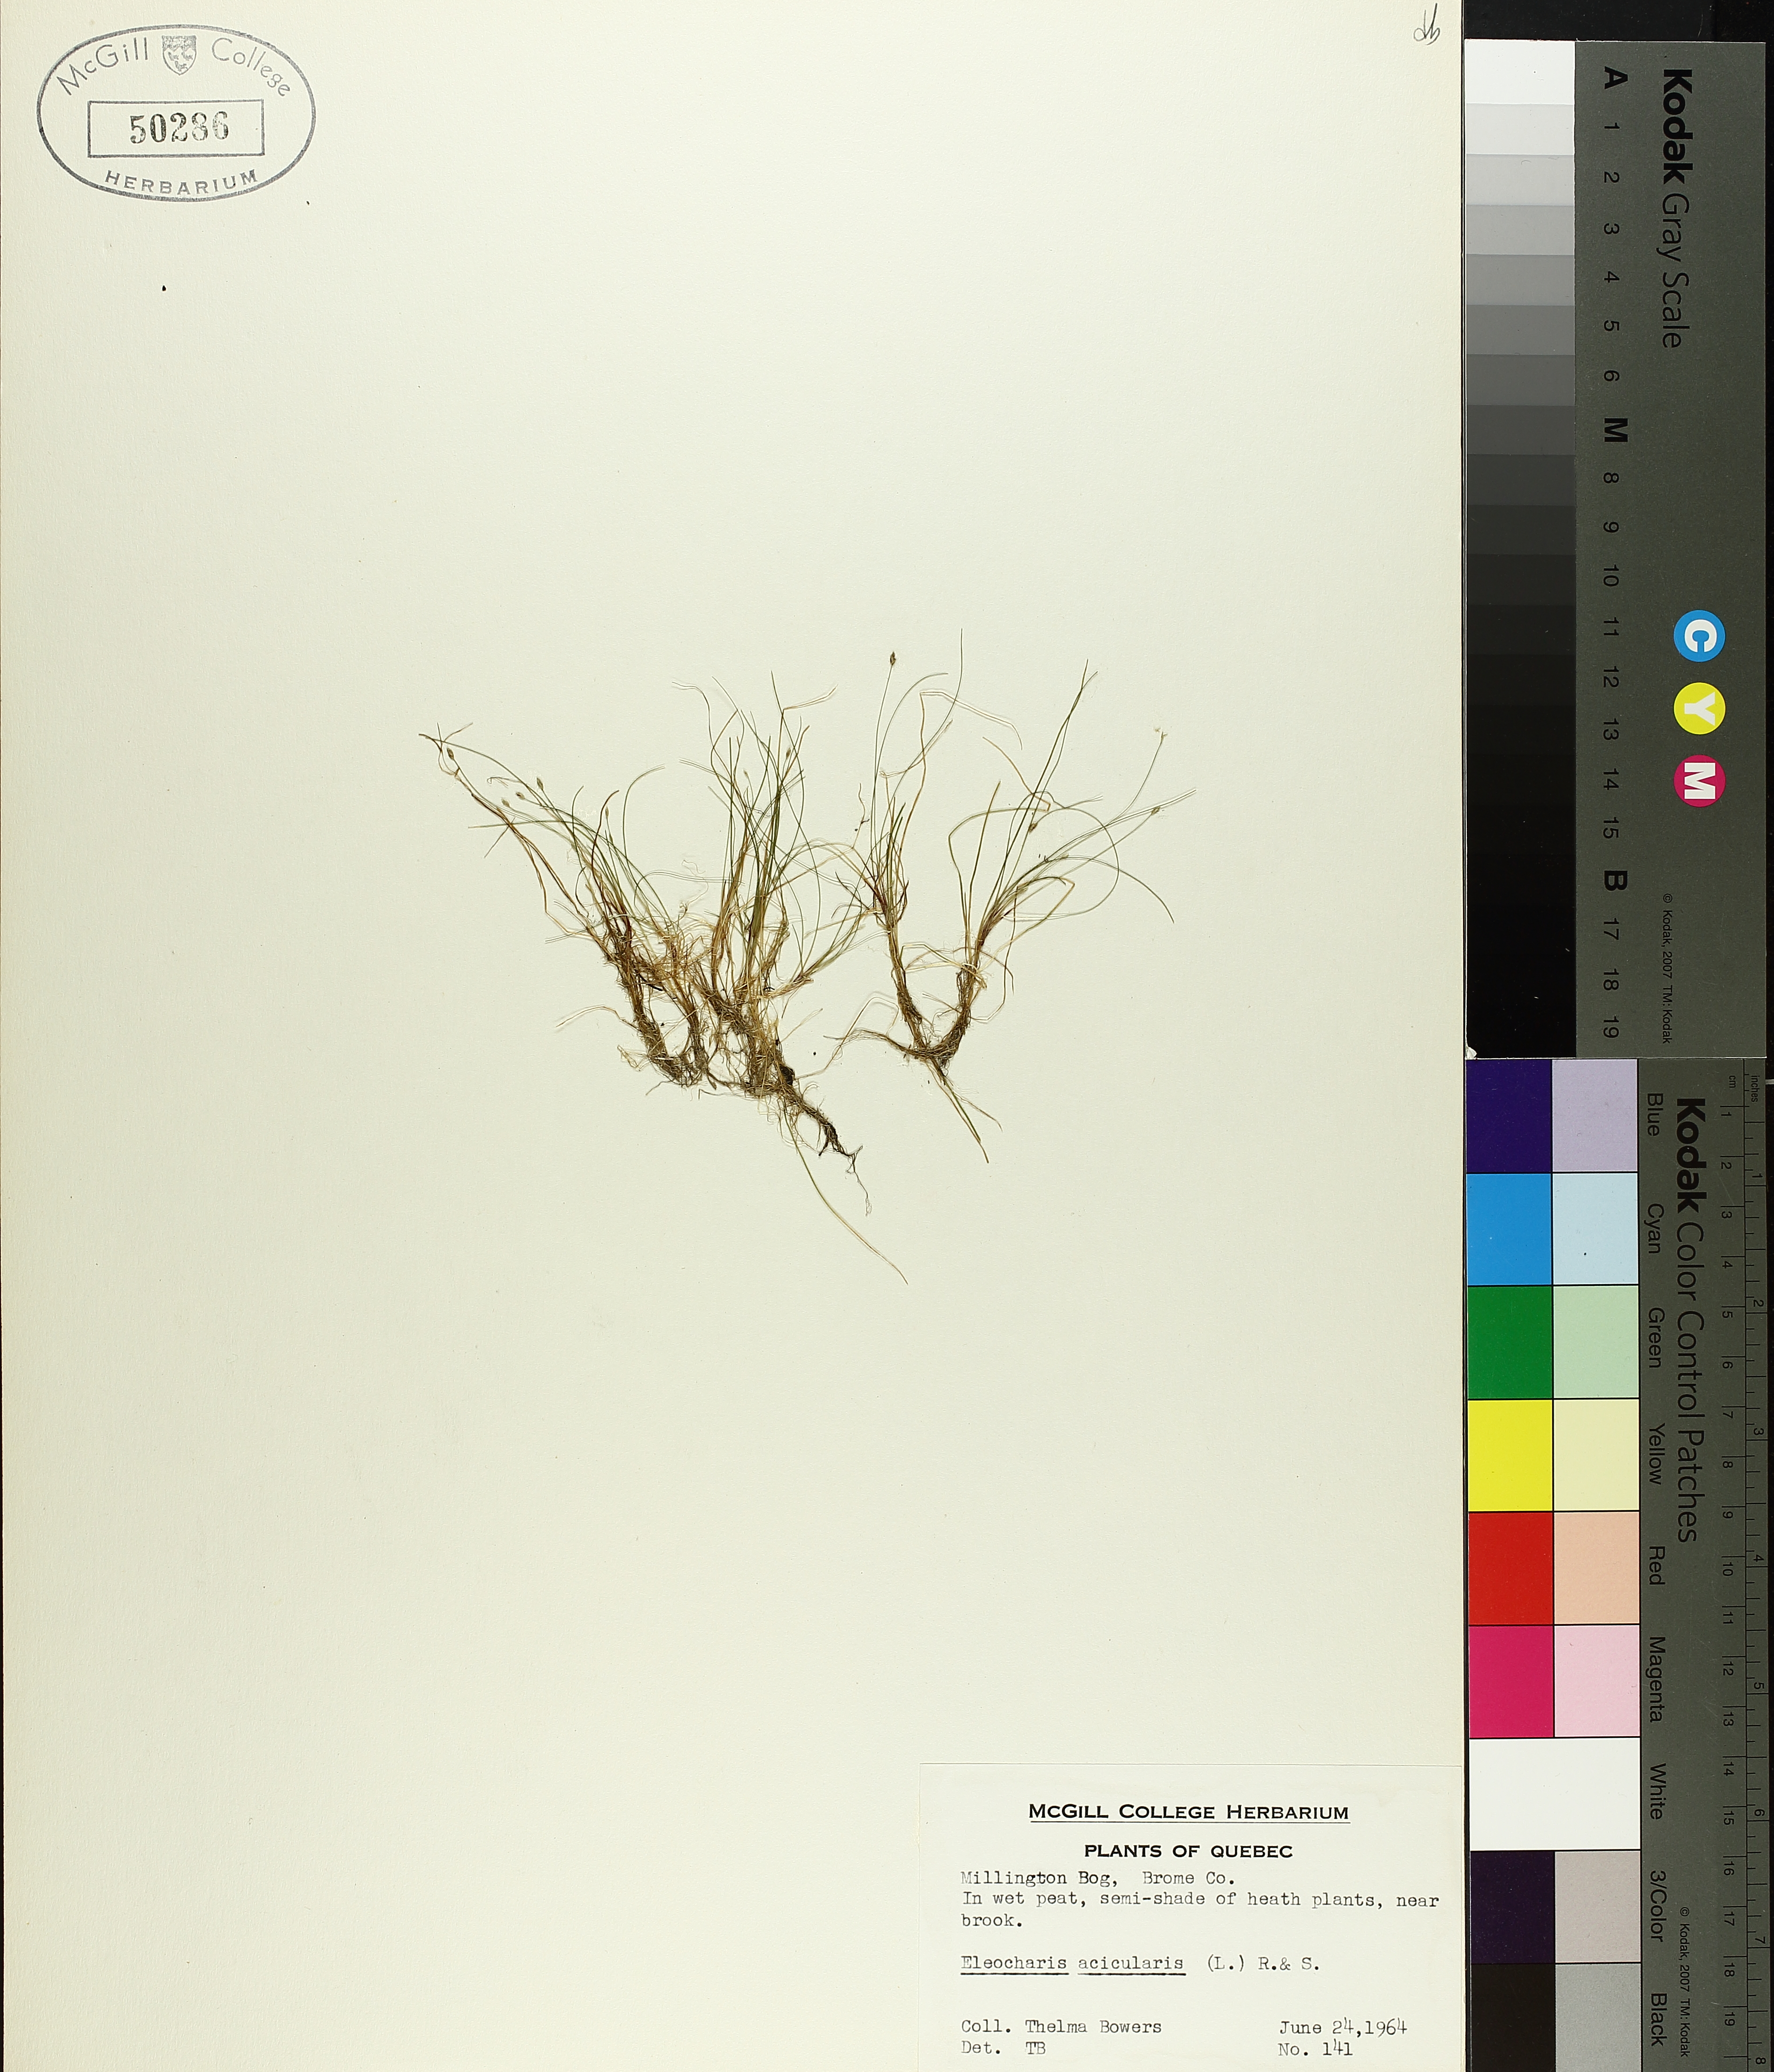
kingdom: Plantae
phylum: Tracheophyta
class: Liliopsida
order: Poales
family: Cyperaceae
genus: Eleocharis
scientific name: Eleocharis acicularis
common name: Needle spike-rush
